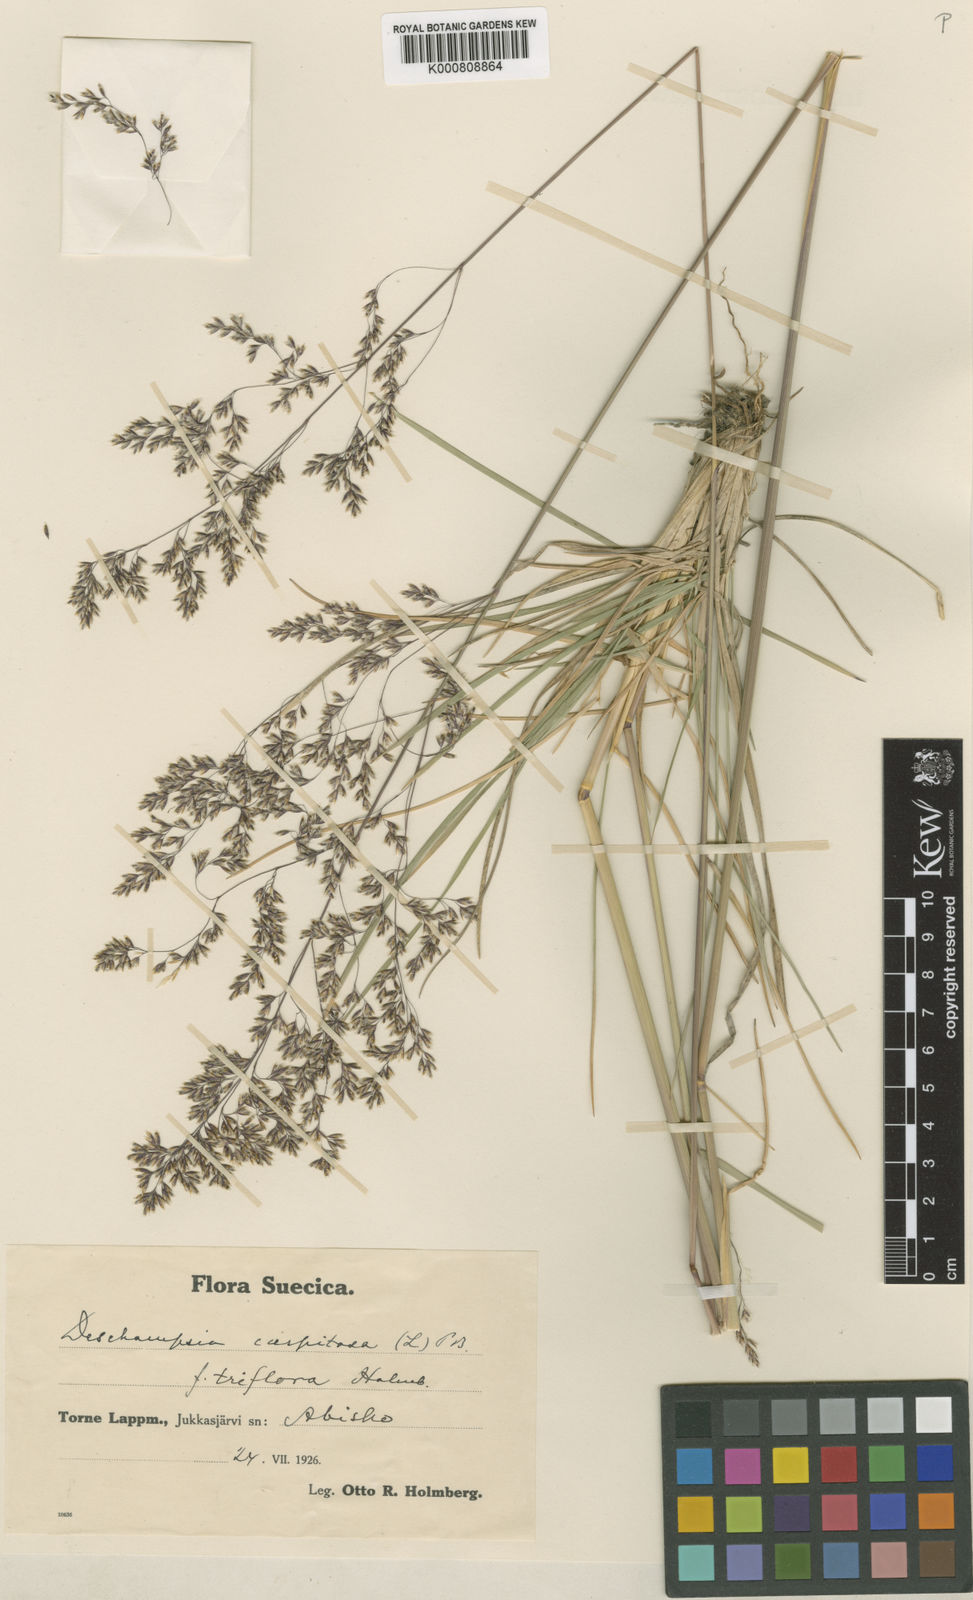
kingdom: Plantae
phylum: Tracheophyta
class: Liliopsida
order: Poales
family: Poaceae
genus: Deschampsia
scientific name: Deschampsia cespitosa
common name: Tufted hair-grass
